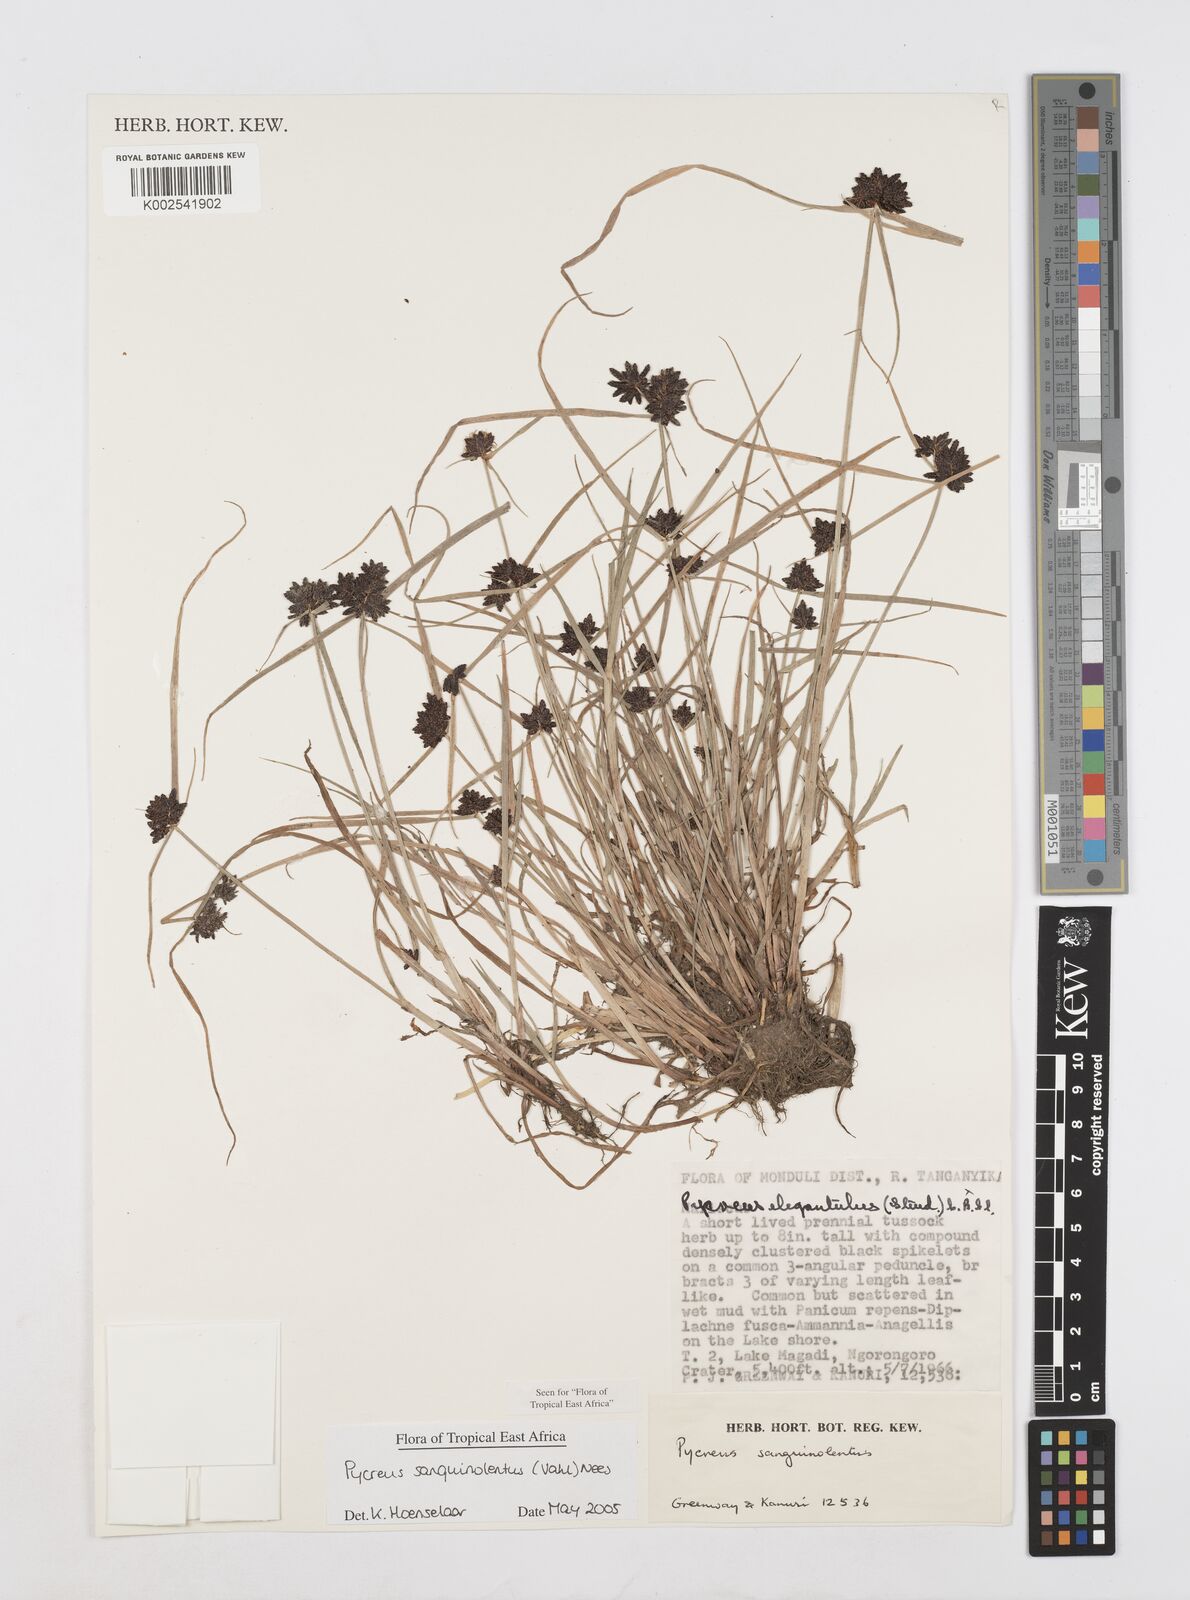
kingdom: Plantae
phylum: Tracheophyta
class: Liliopsida
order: Poales
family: Cyperaceae
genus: Cyperus
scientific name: Cyperus sanguinolentus
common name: Purpleglume flatsedge
